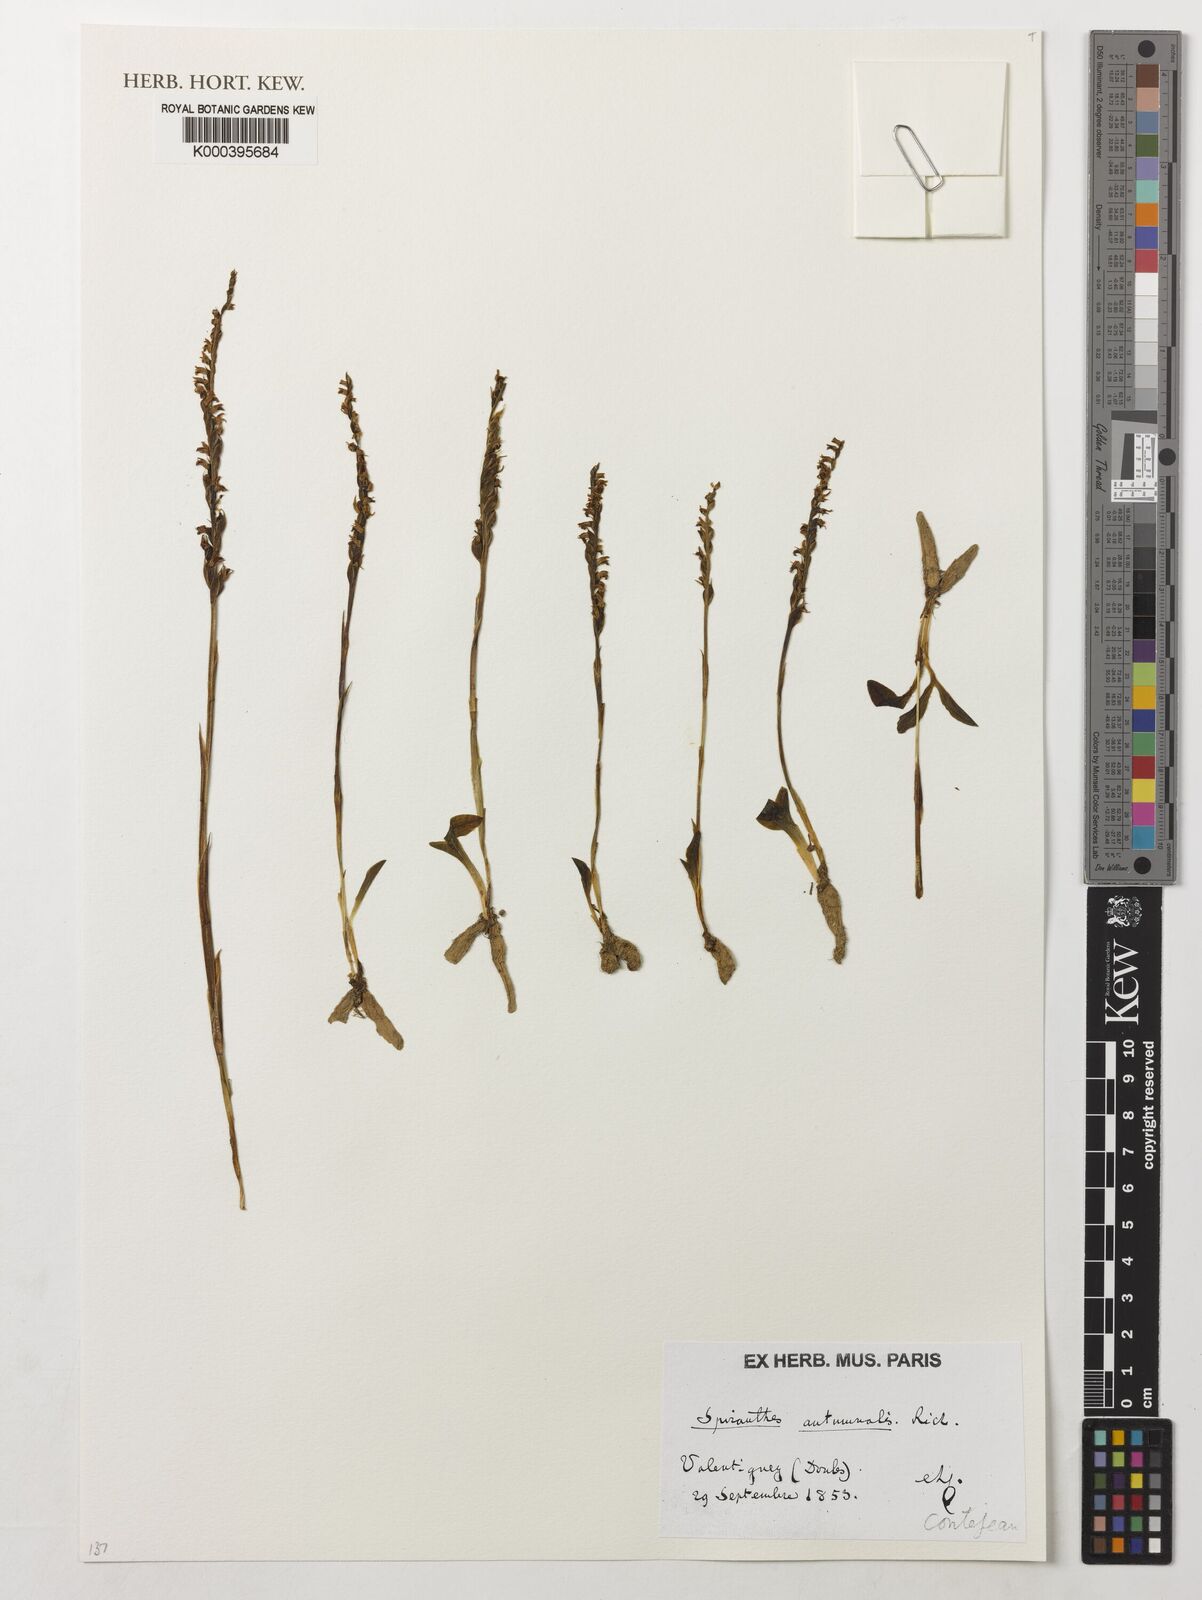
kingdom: Plantae
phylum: Tracheophyta
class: Liliopsida
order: Asparagales
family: Orchidaceae
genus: Spiranthes
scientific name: Spiranthes spiralis
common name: Autumn lady's-tresses
